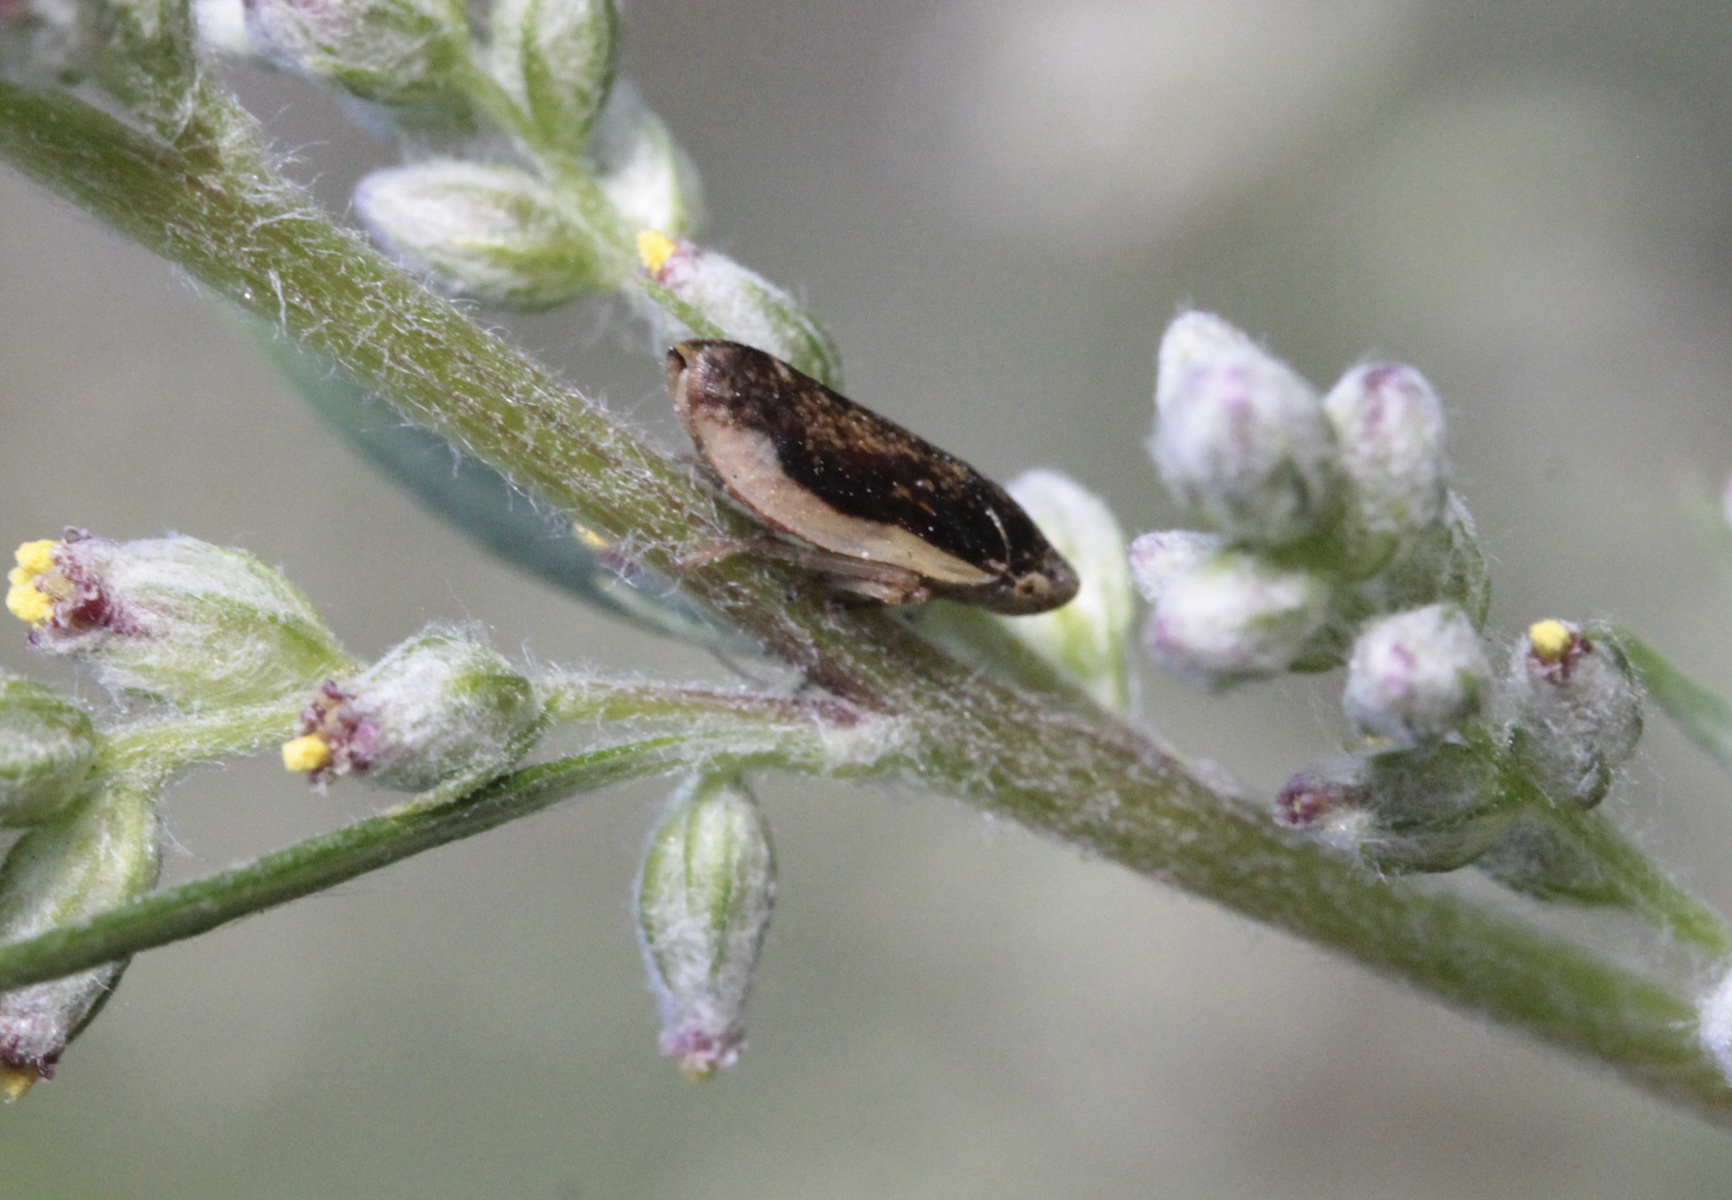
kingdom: Animalia
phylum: Arthropoda
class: Insecta
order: Hemiptera
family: Aphrophoridae
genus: Philaenus
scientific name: Philaenus spumarius
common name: Meadow spittlebug
